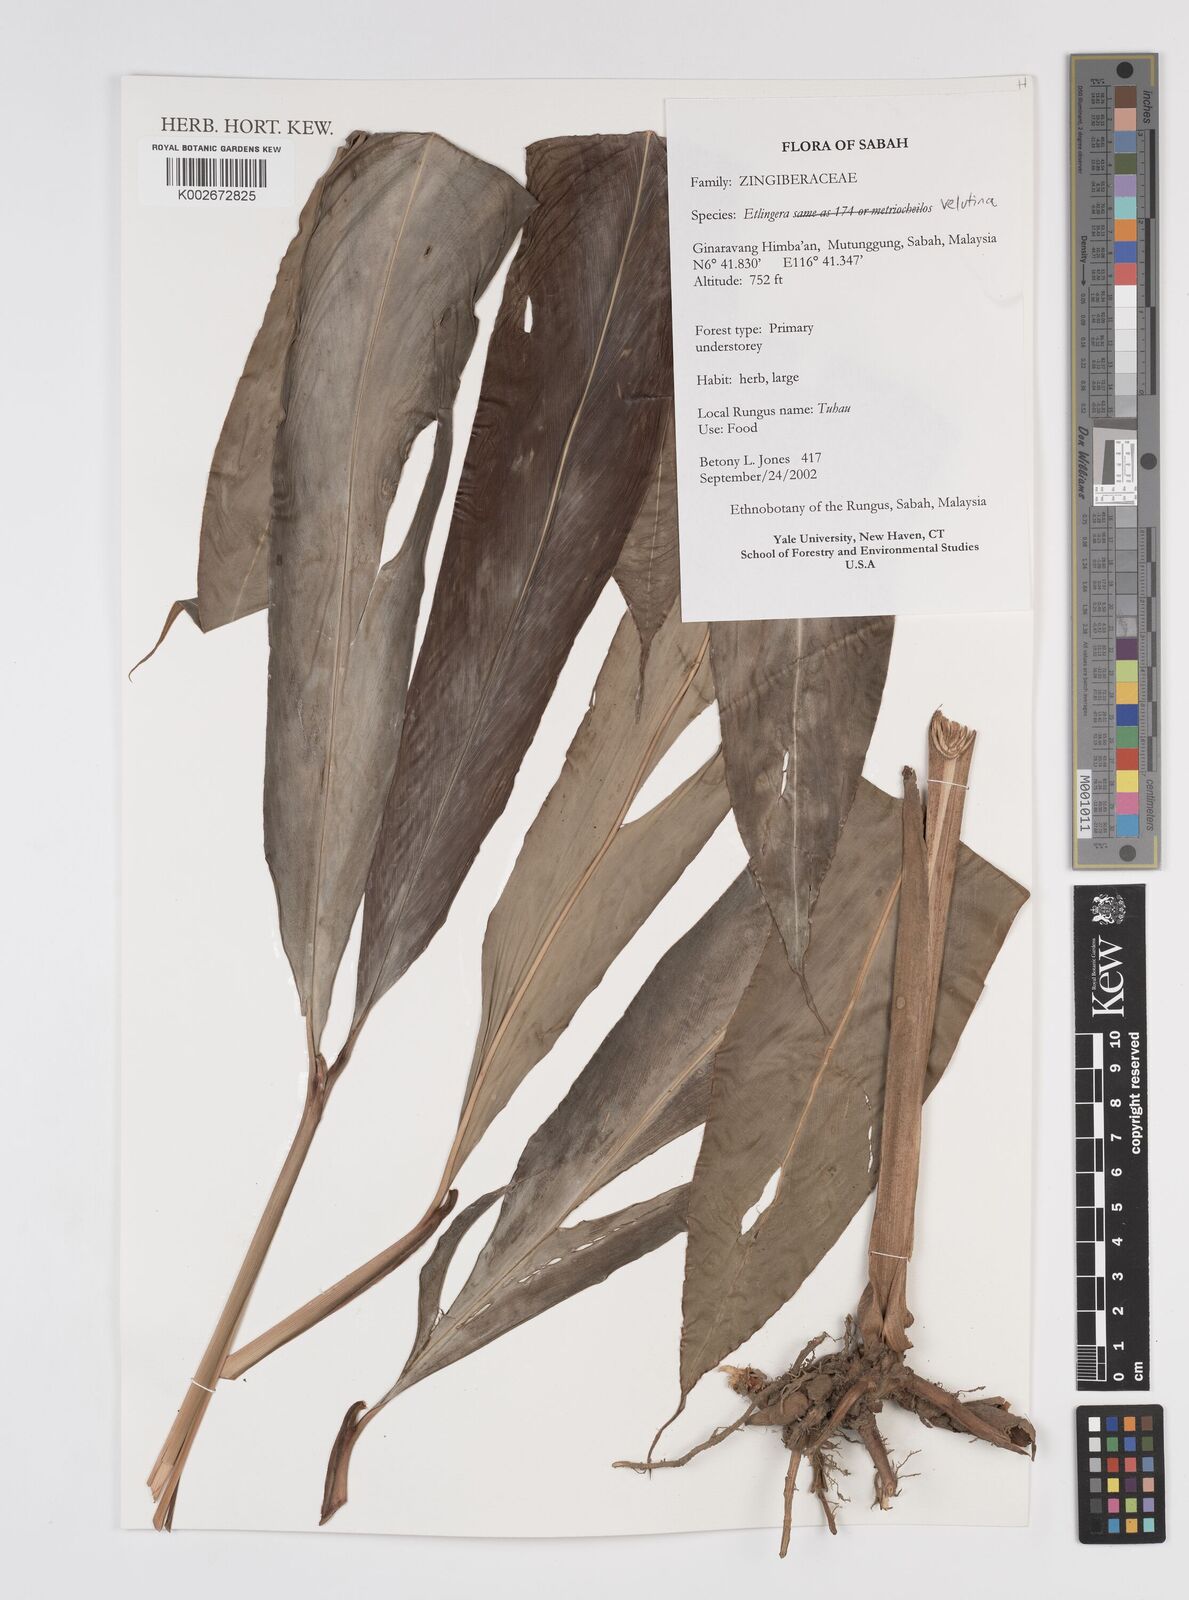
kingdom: Plantae
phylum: Tracheophyta
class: Liliopsida
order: Zingiberales
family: Zingiberaceae
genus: Etlingera
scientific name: Etlingera velutina
